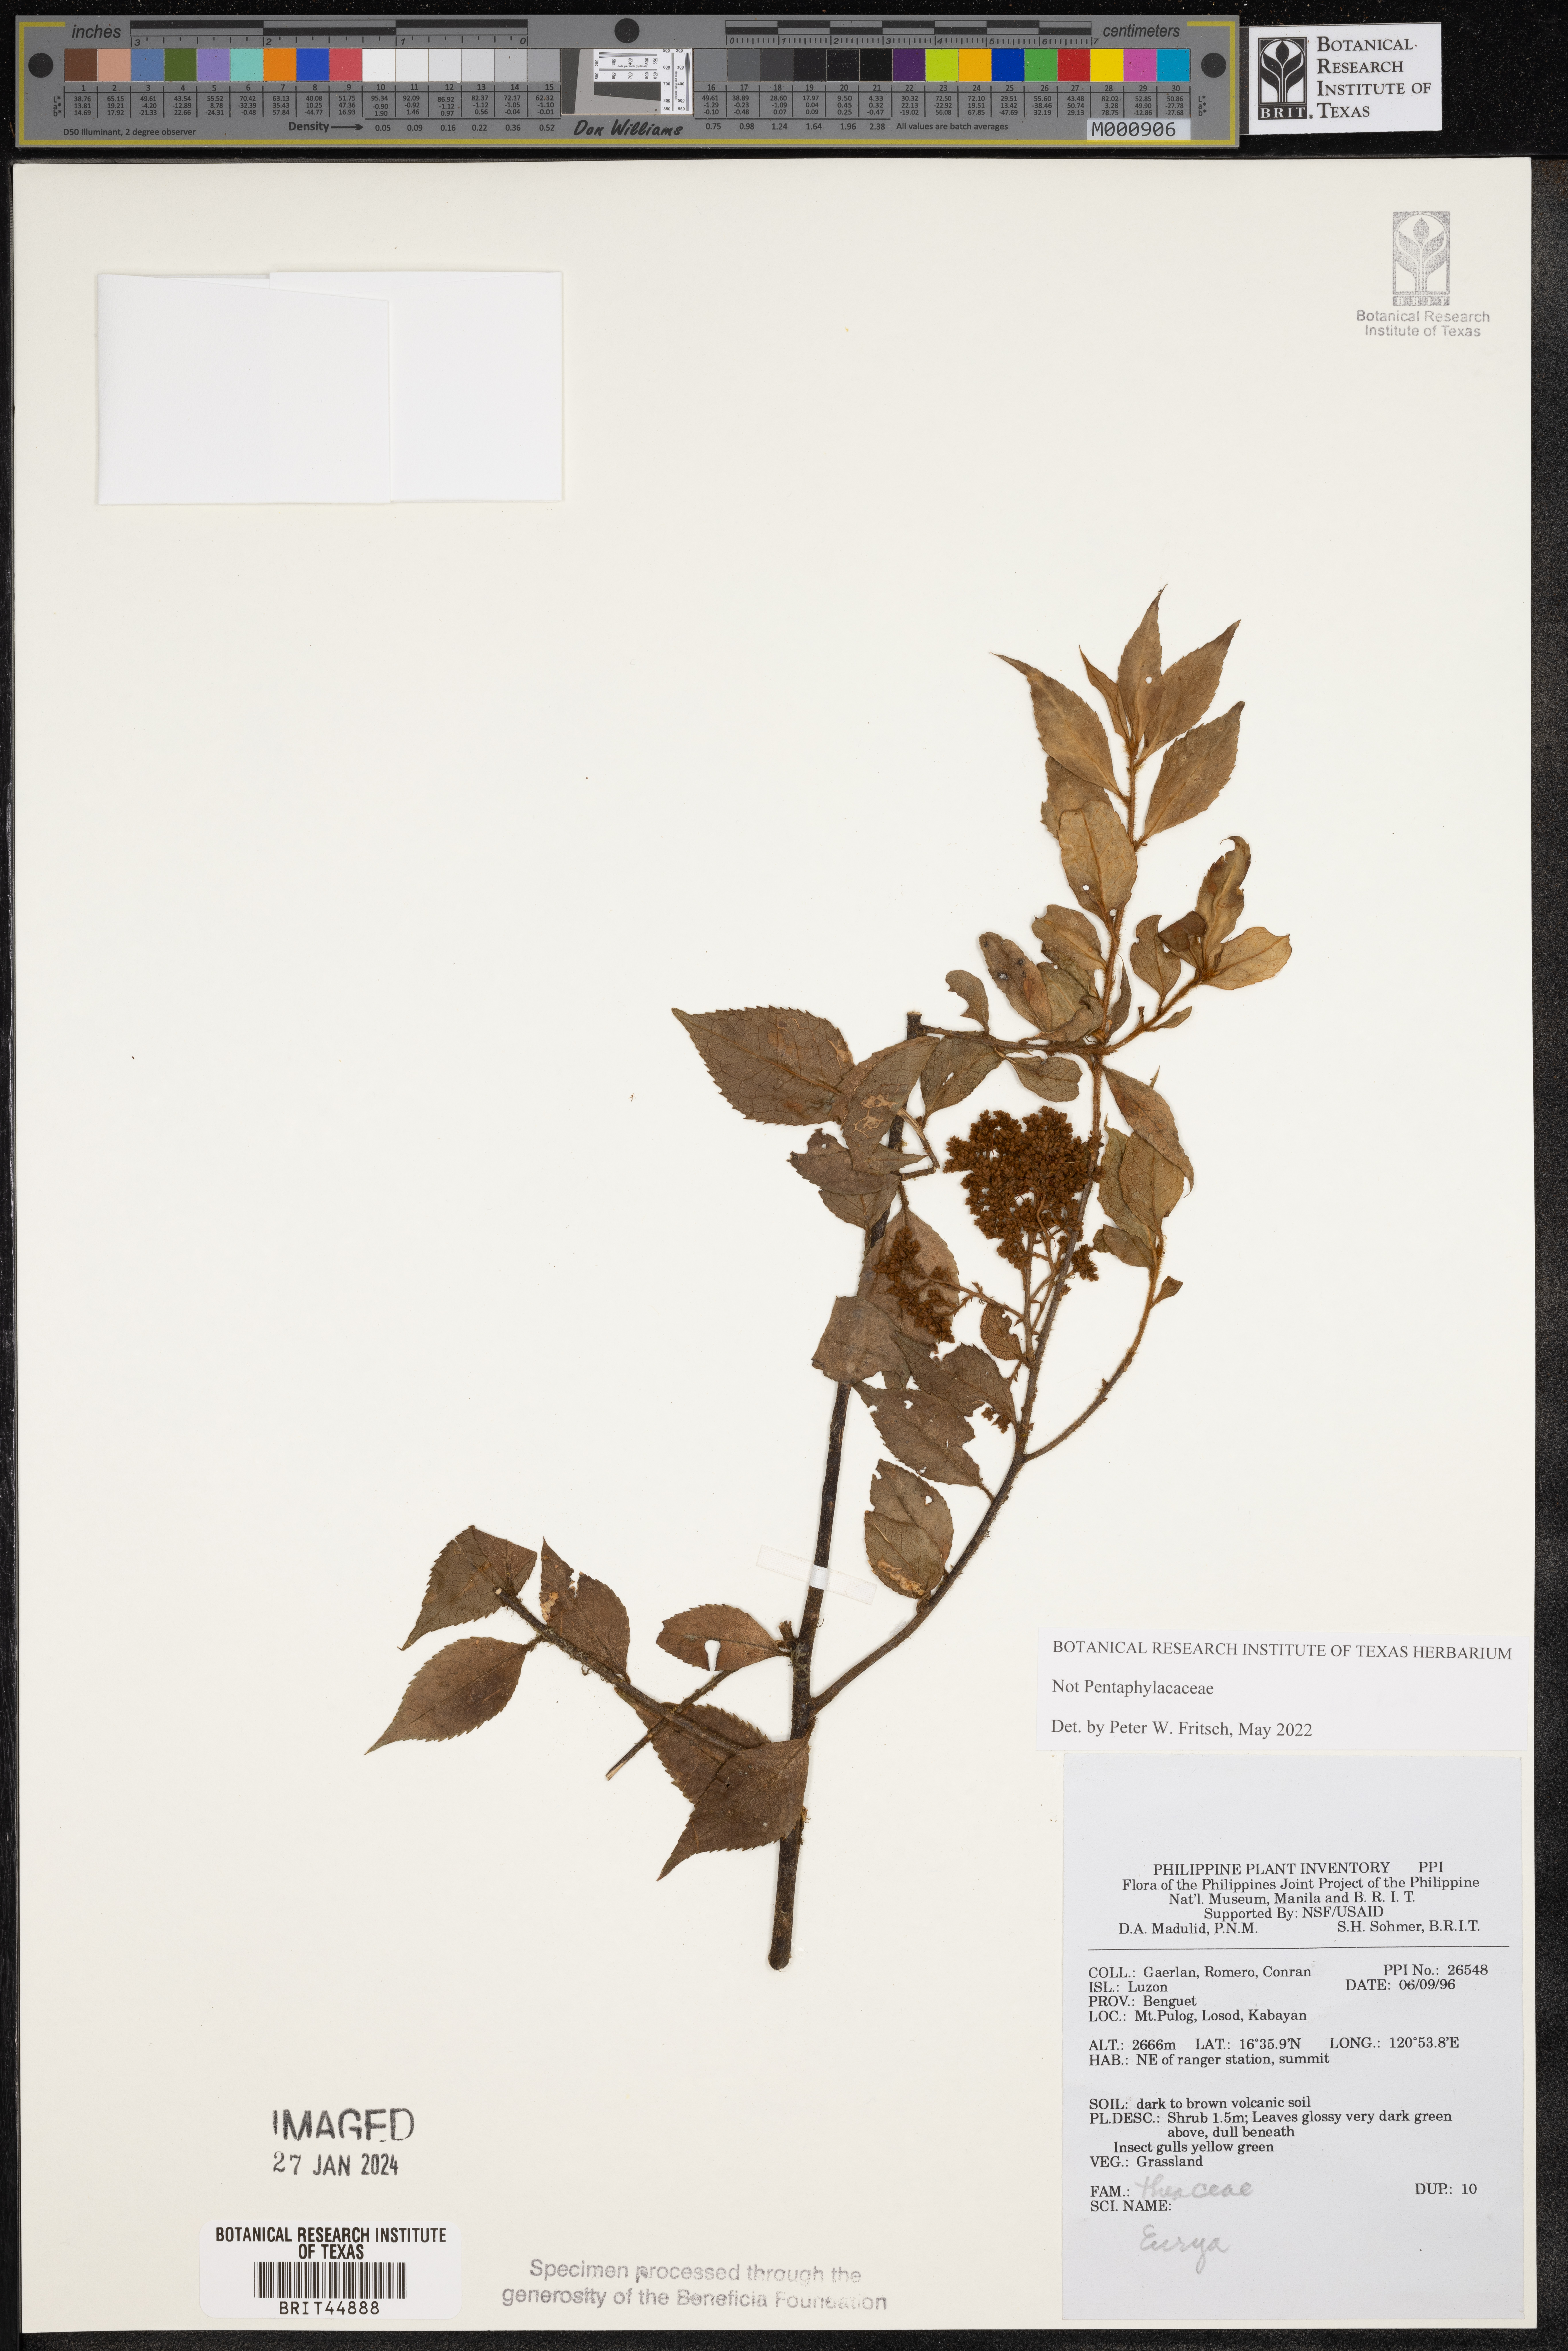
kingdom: Plantae
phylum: Tracheophyta
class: Magnoliopsida
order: Ericales
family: Pentaphylacaceae
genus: Eurya
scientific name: Eurya
